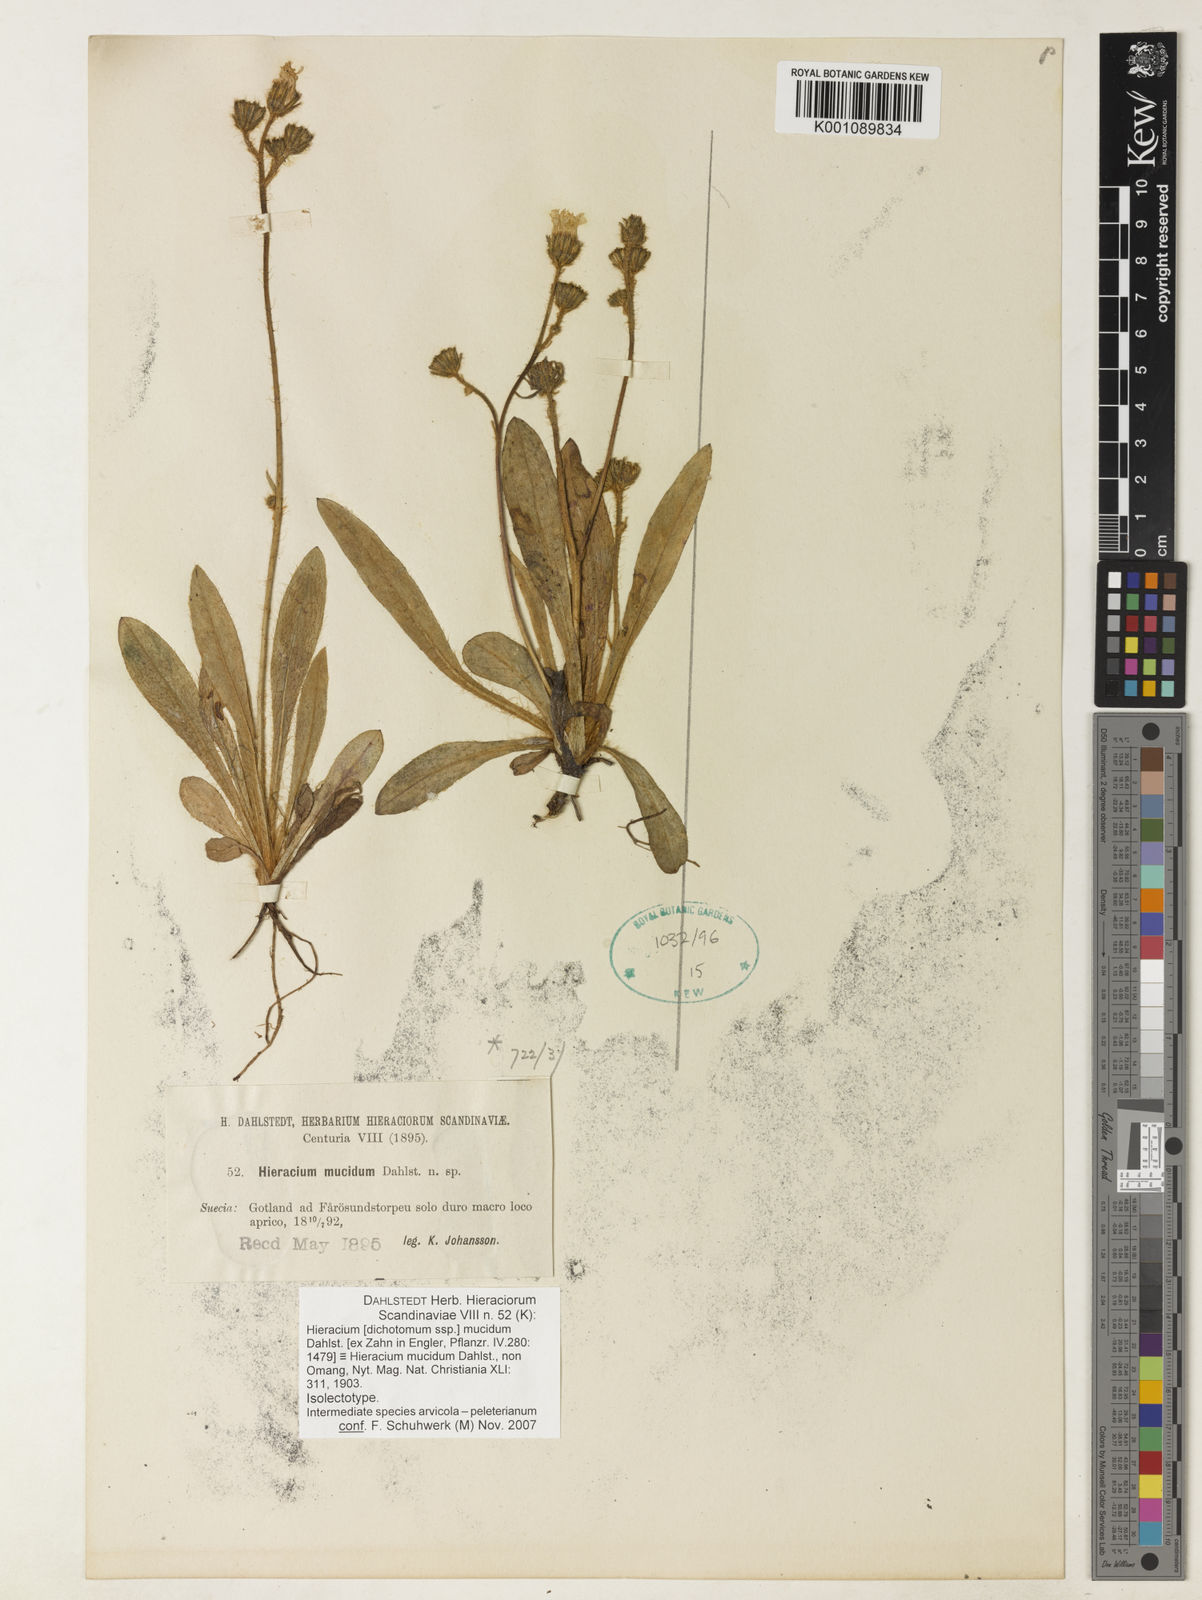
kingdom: Plantae
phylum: Tracheophyta
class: Magnoliopsida
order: Asterales
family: Asteraceae
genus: Hieracium
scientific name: Hieracium
